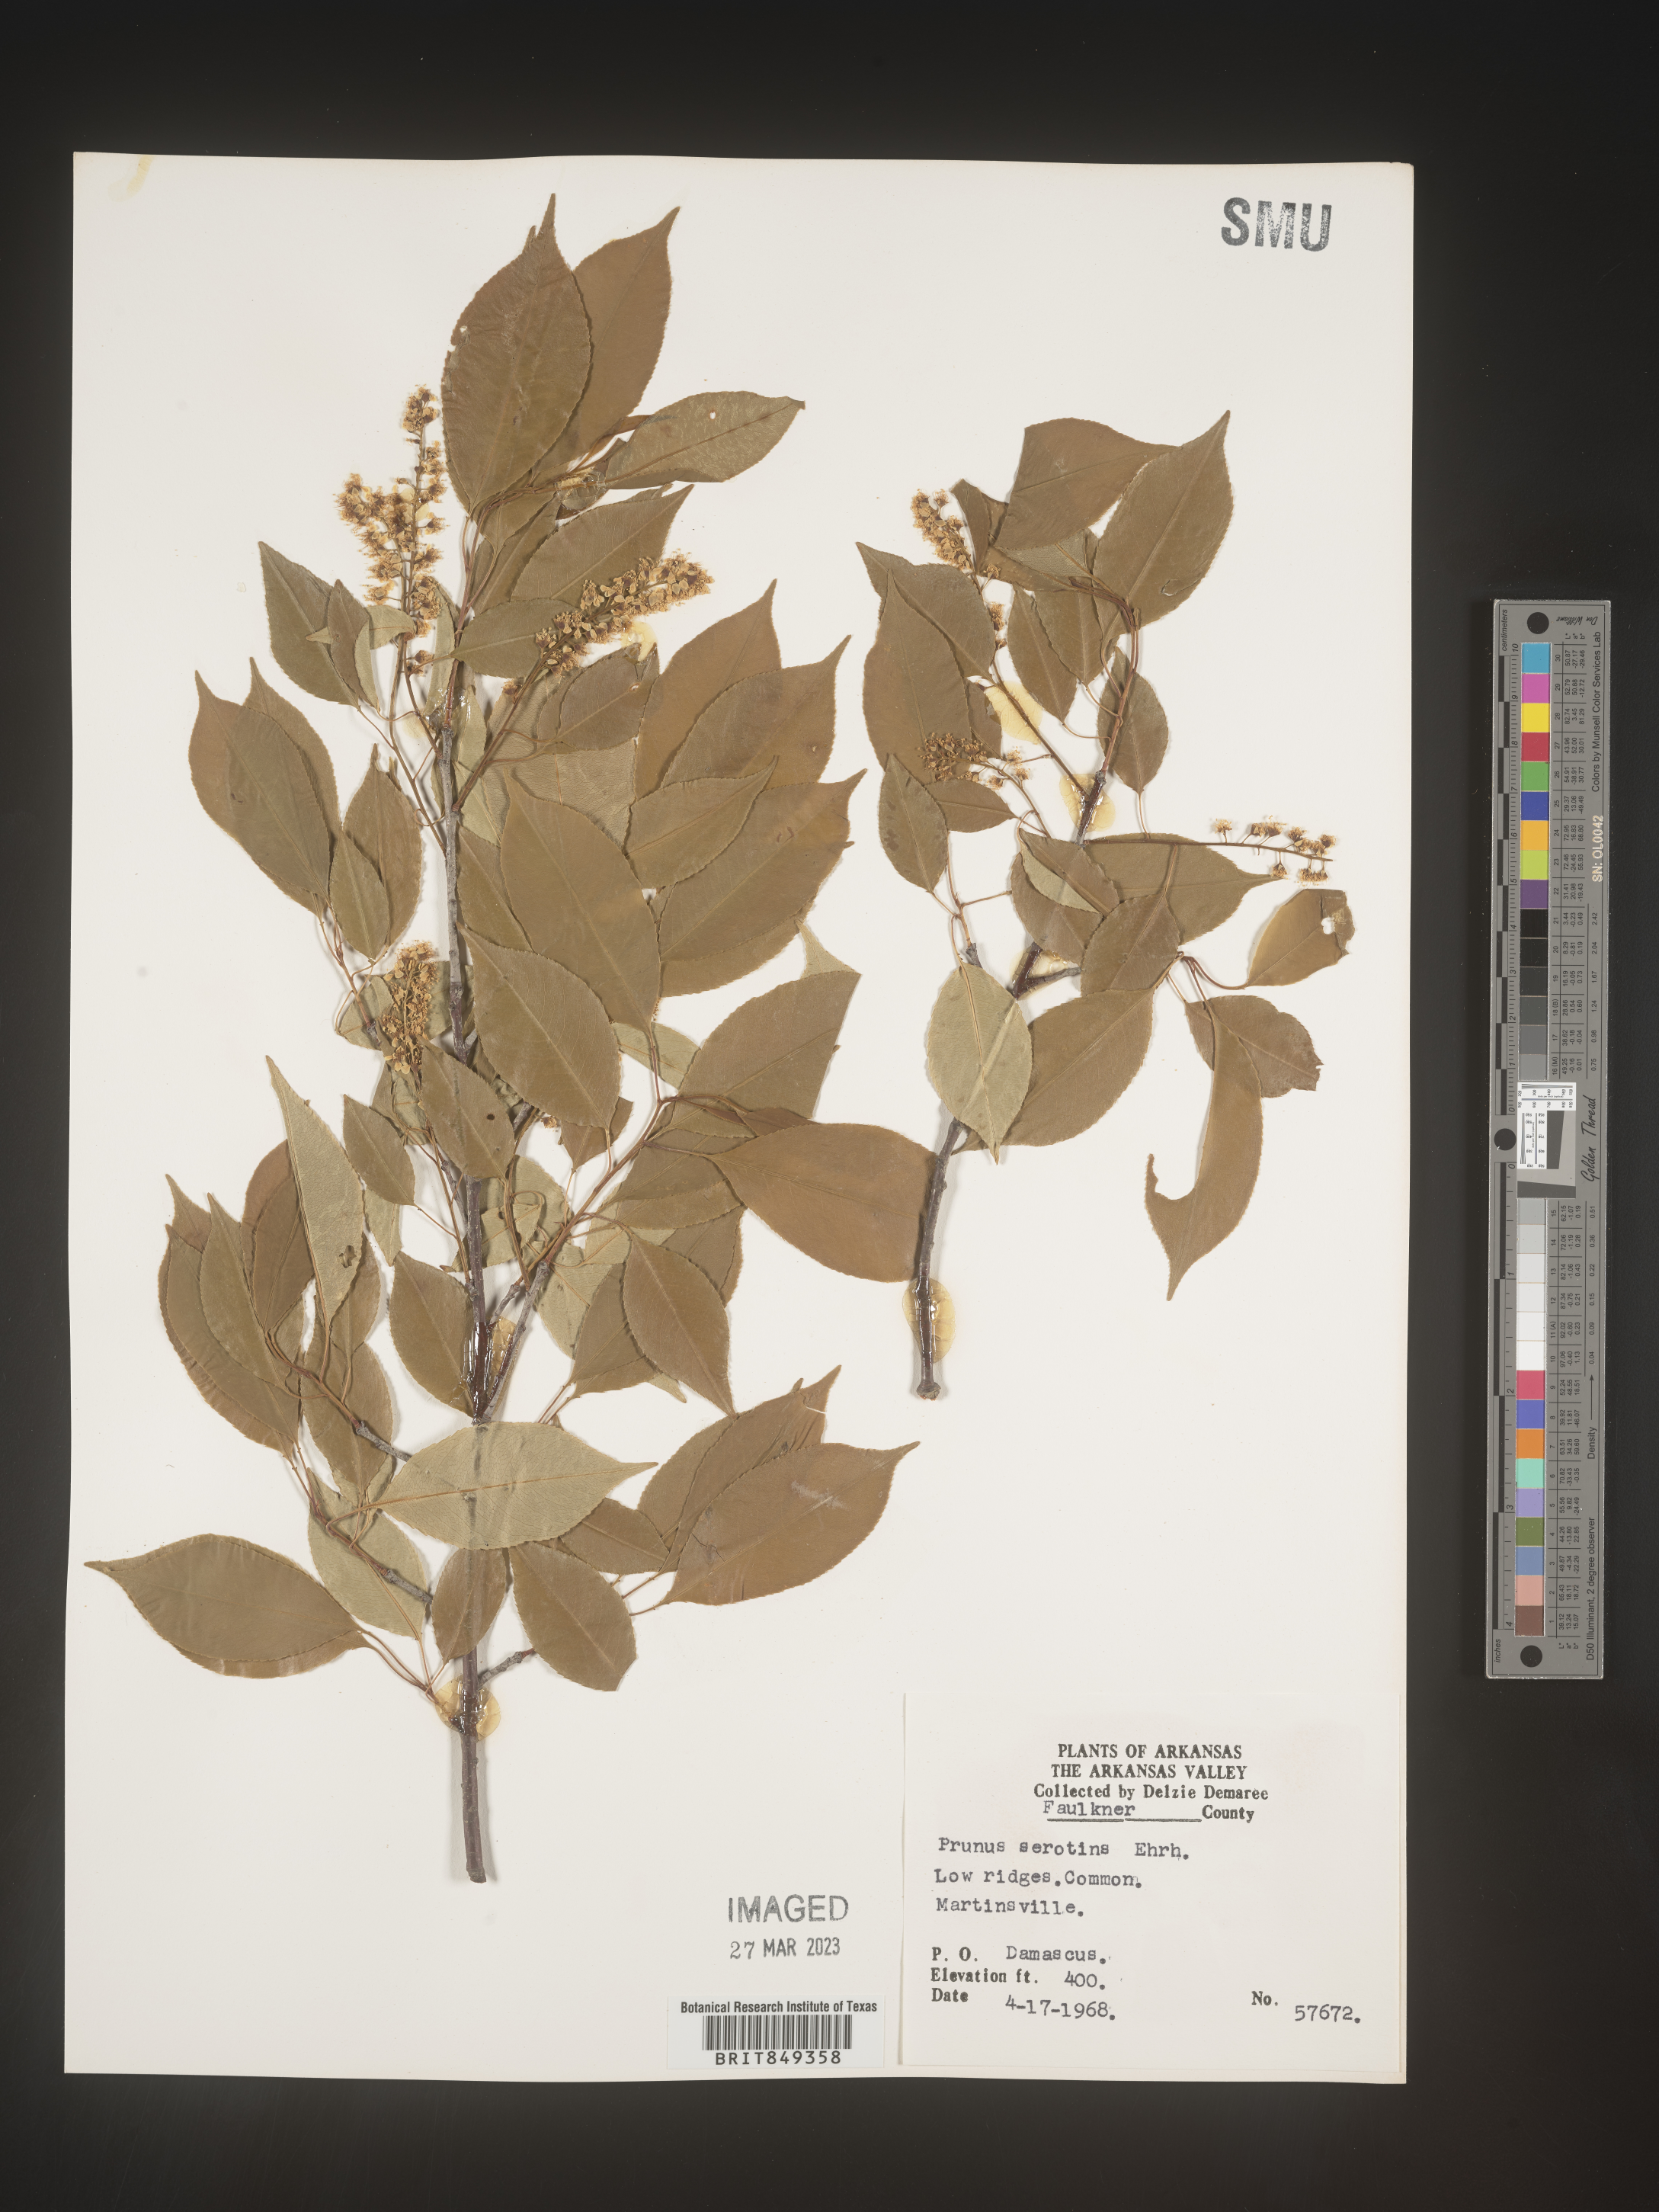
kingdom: Plantae
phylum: Tracheophyta
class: Magnoliopsida
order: Rosales
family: Rosaceae
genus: Prunus
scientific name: Prunus serotina
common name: Black cherry
